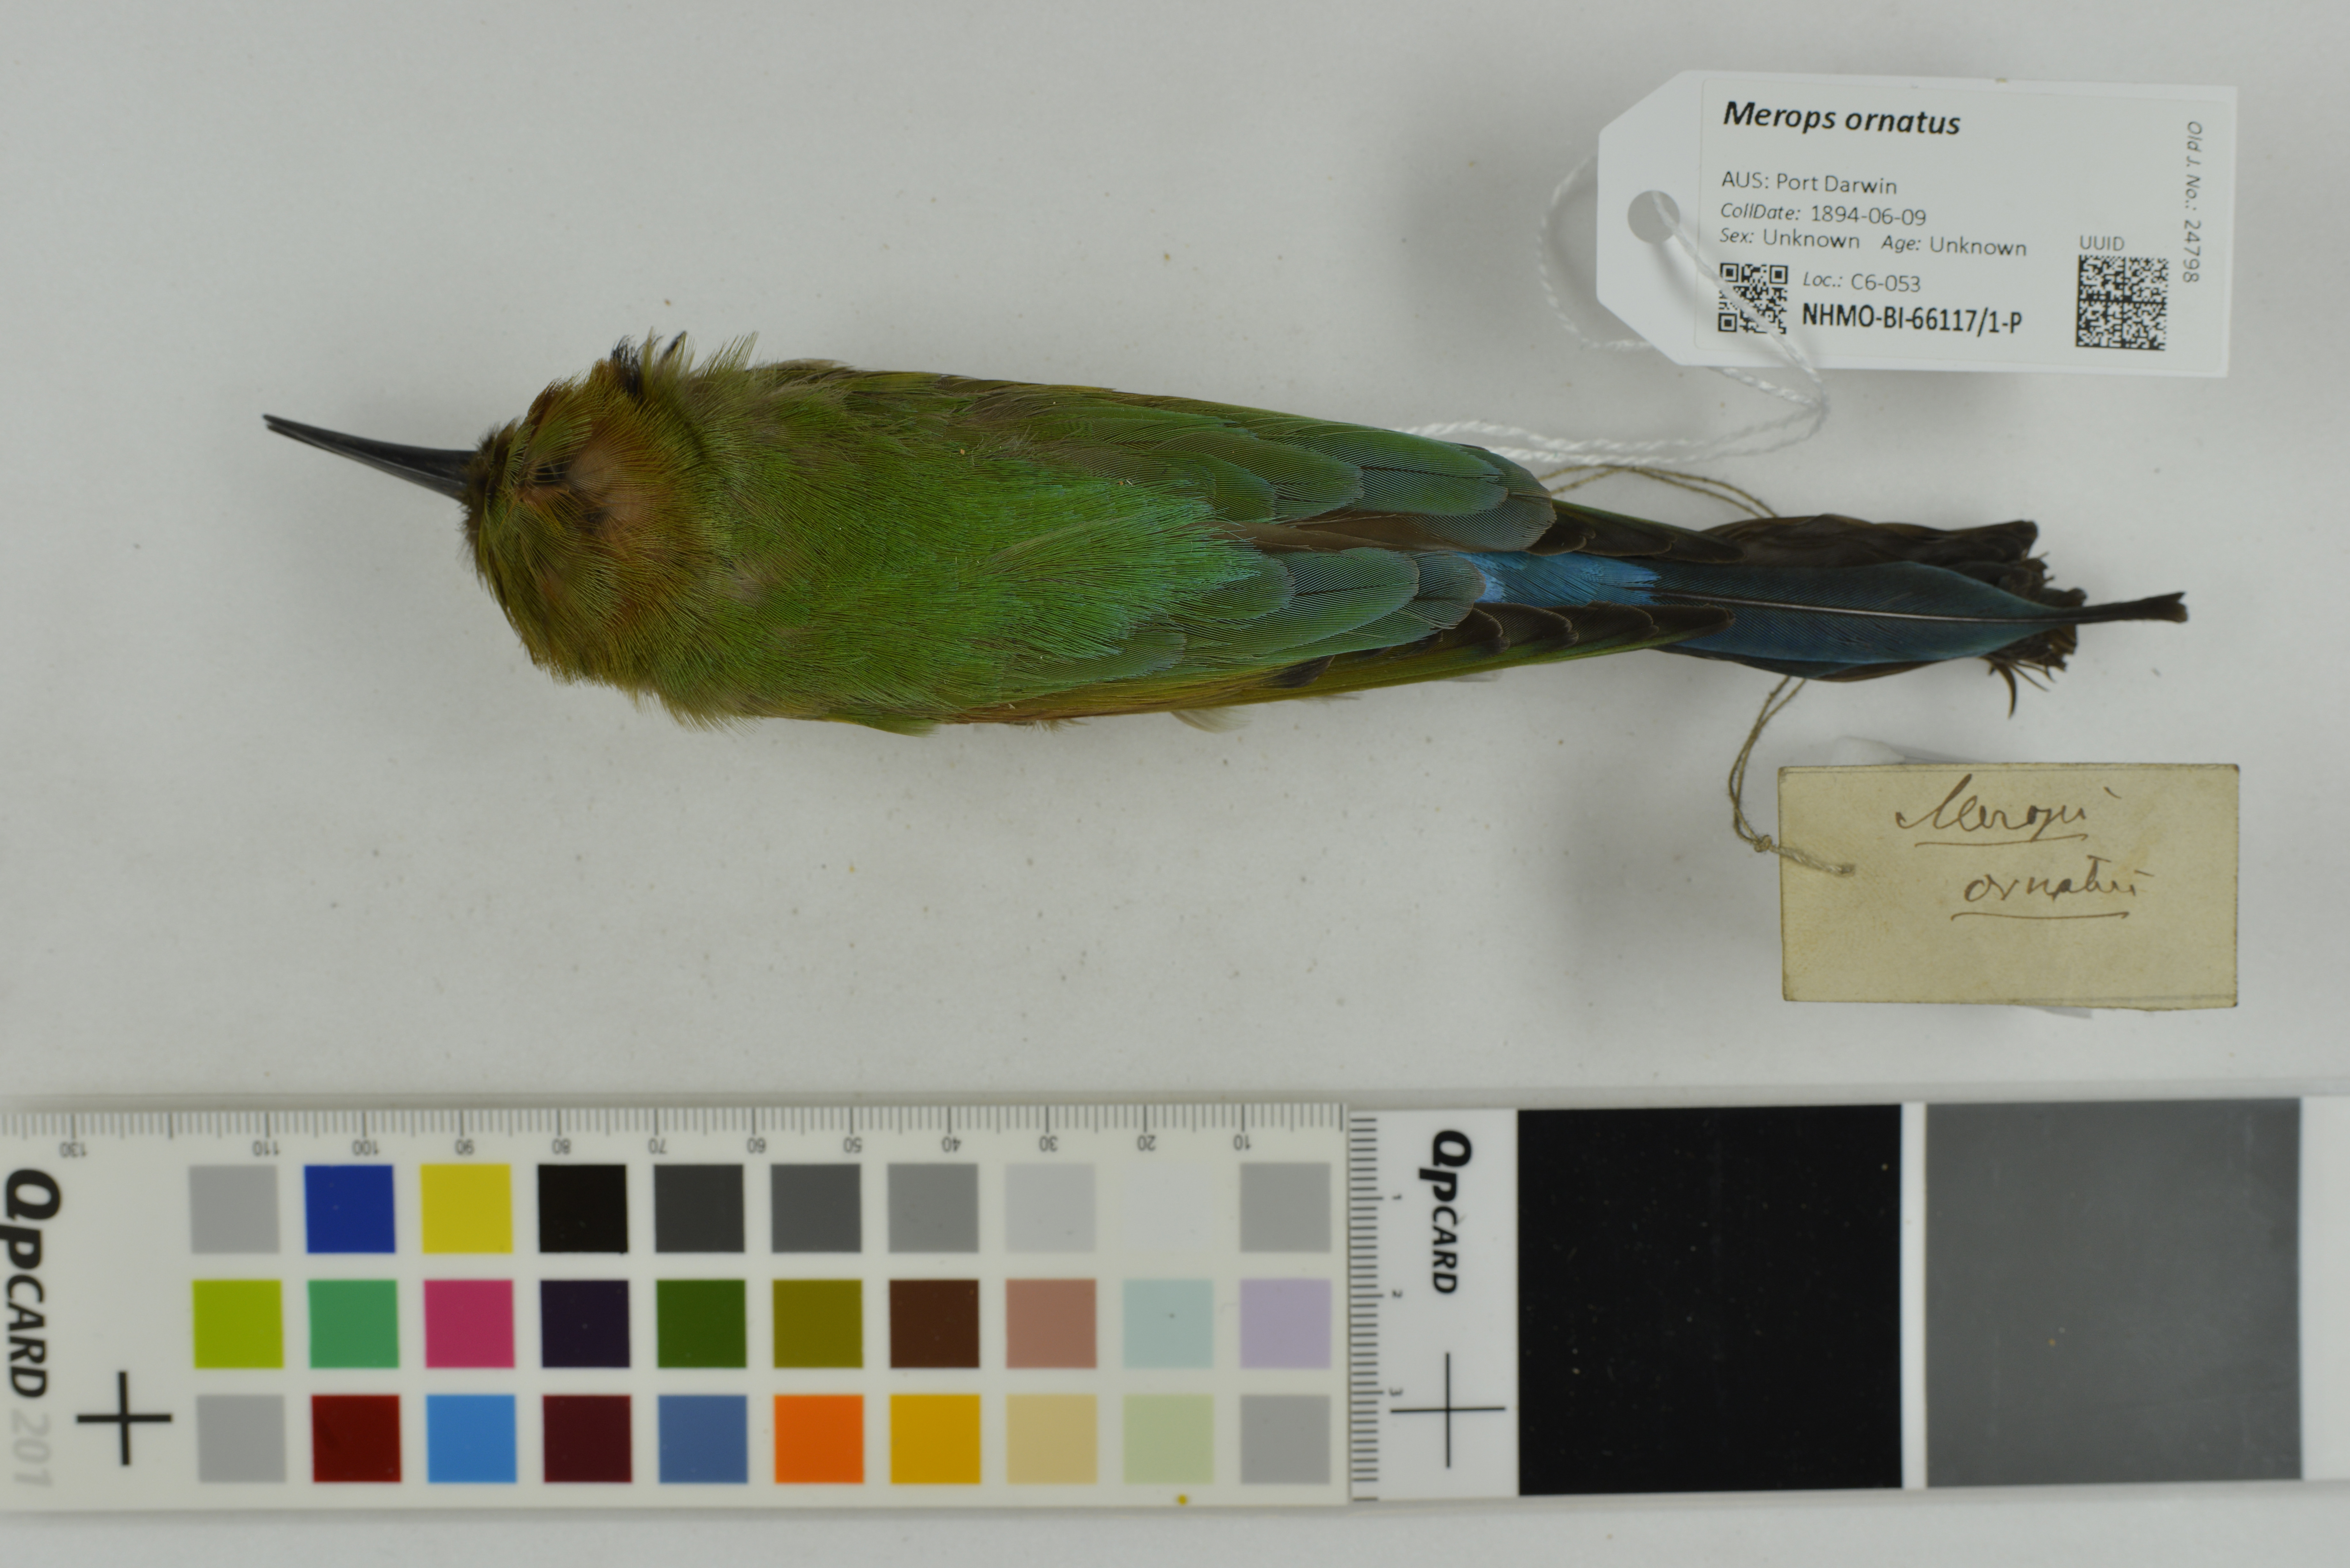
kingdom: Animalia
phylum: Chordata
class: Aves
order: Coraciiformes
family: Meropidae
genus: Merops
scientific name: Merops ornatus
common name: Rainbow bee-eater
